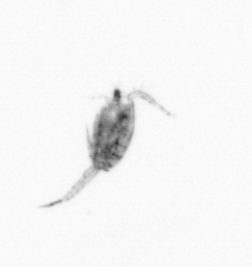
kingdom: Animalia
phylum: Arthropoda
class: Copepoda
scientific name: Copepoda
